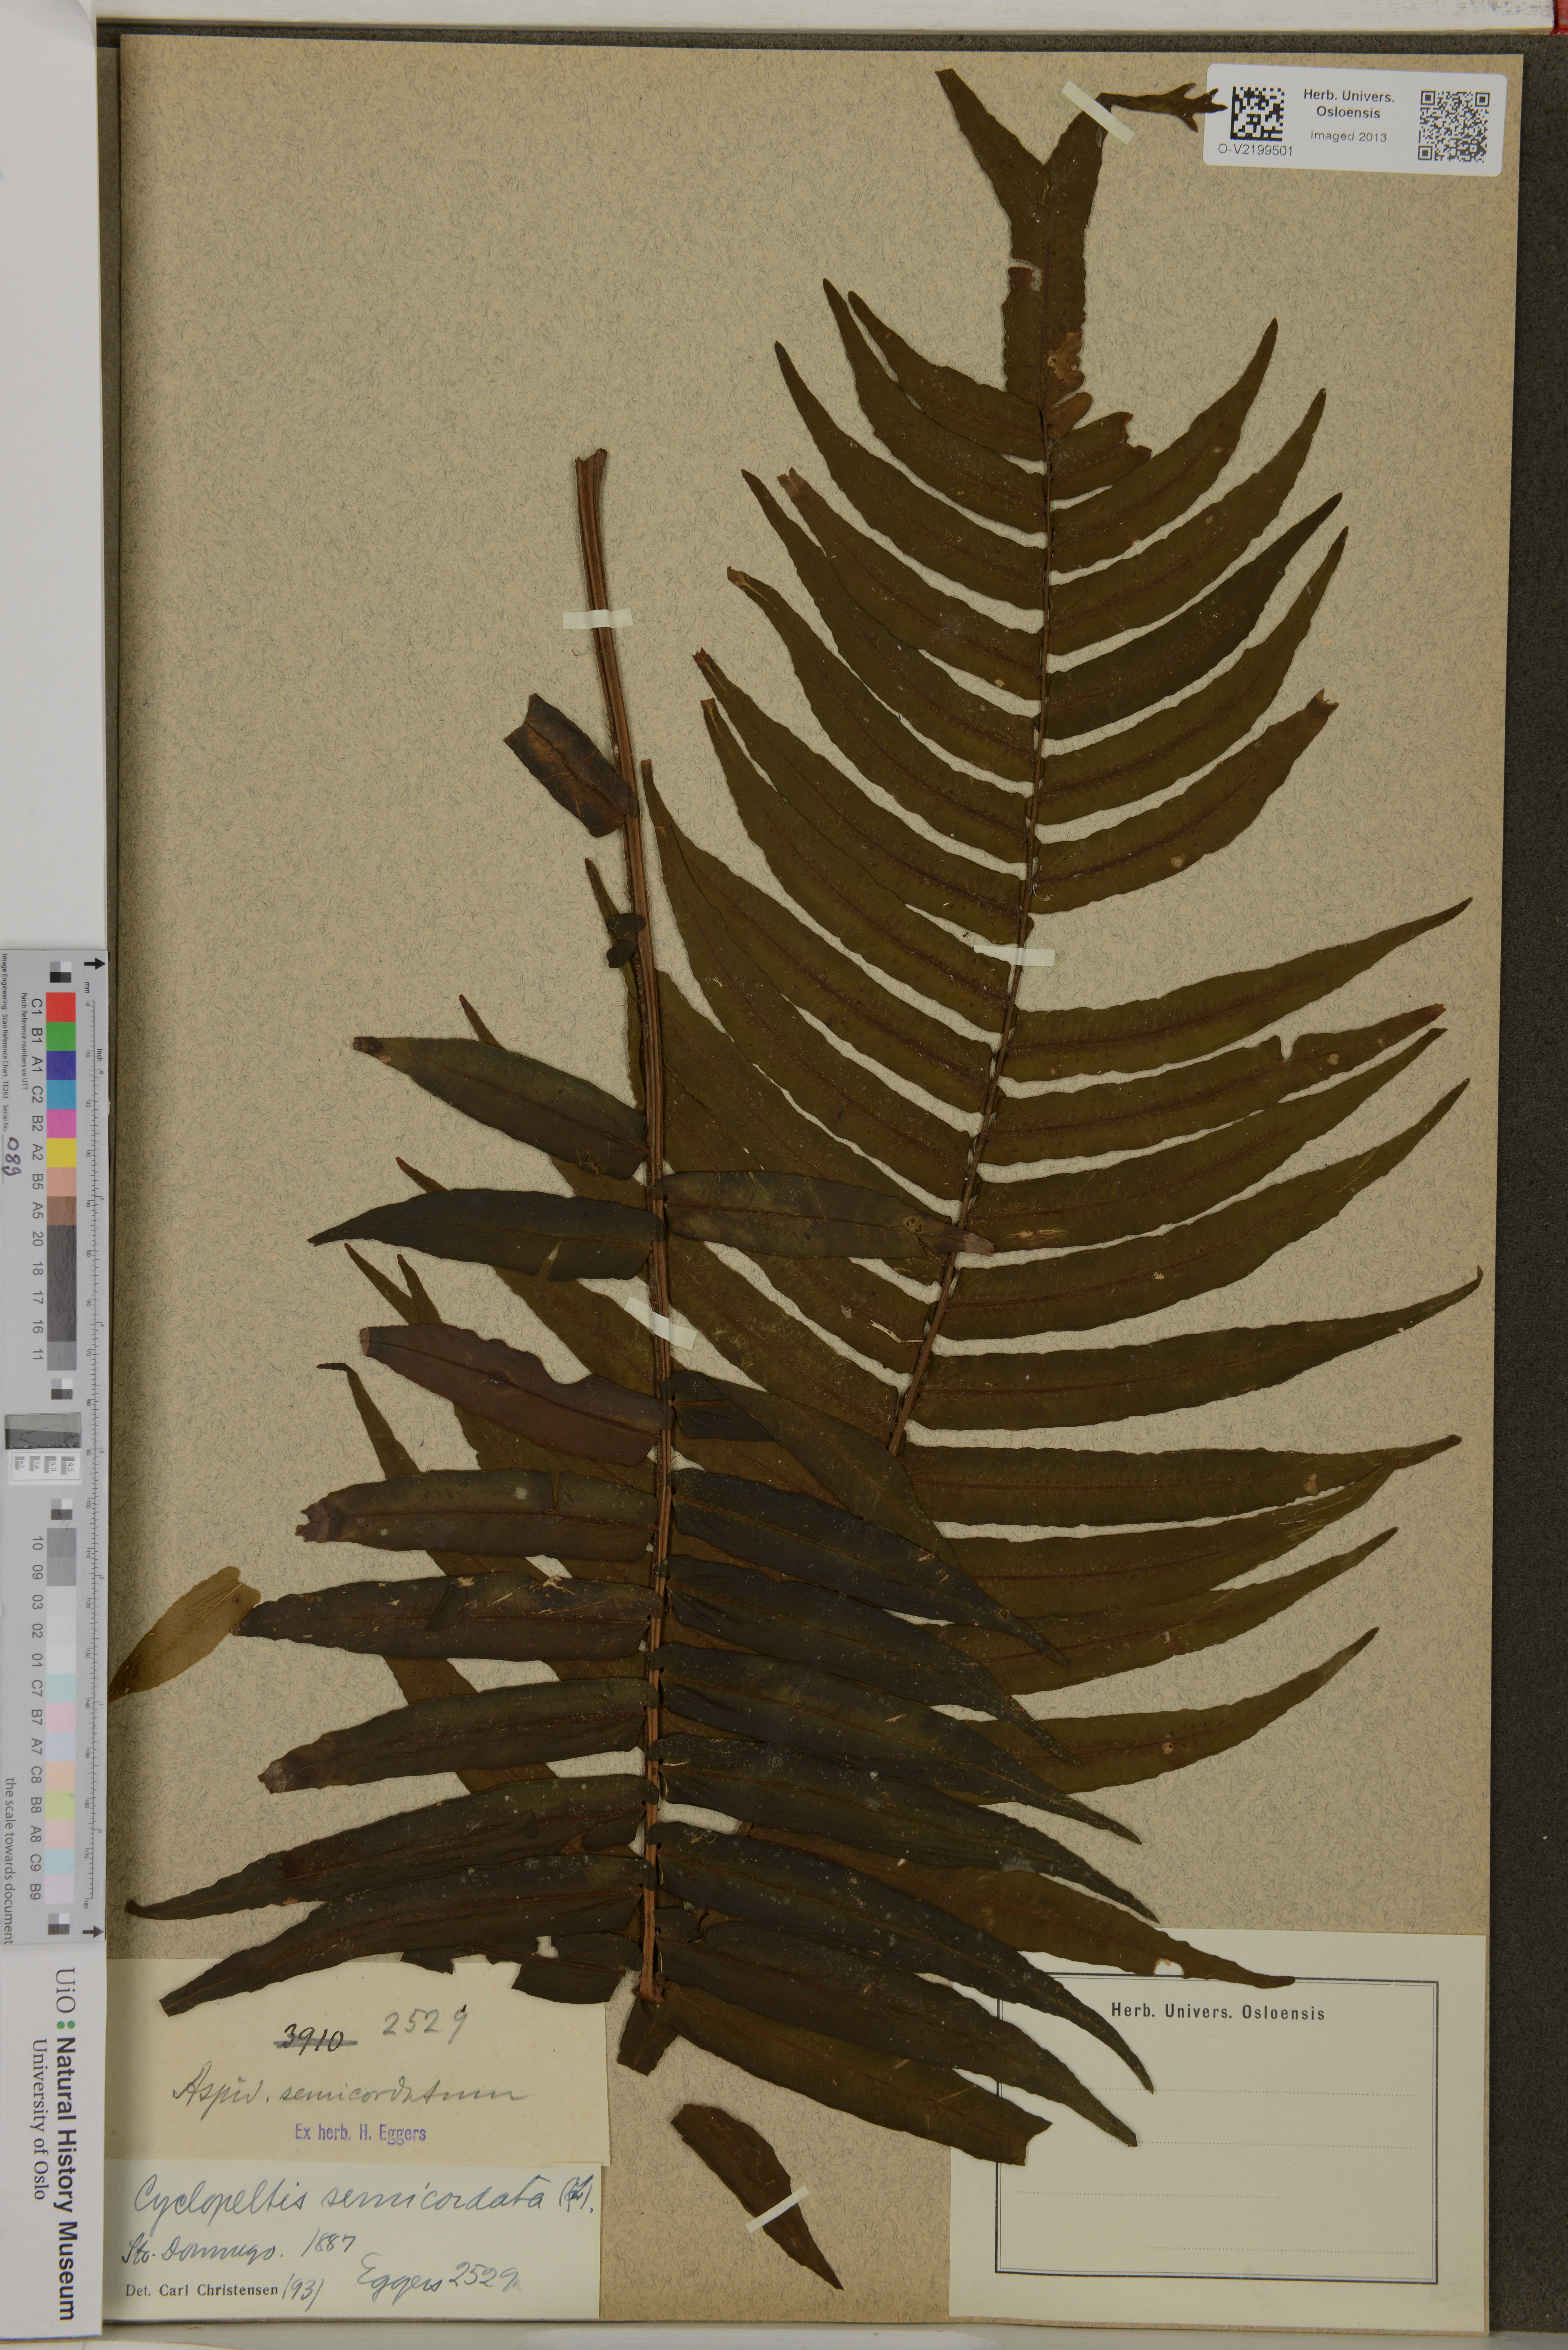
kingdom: Plantae
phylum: Tracheophyta
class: Polypodiopsida
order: Polypodiales
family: Lomariopsidaceae
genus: Cyclopeltis
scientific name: Cyclopeltis semicordata
